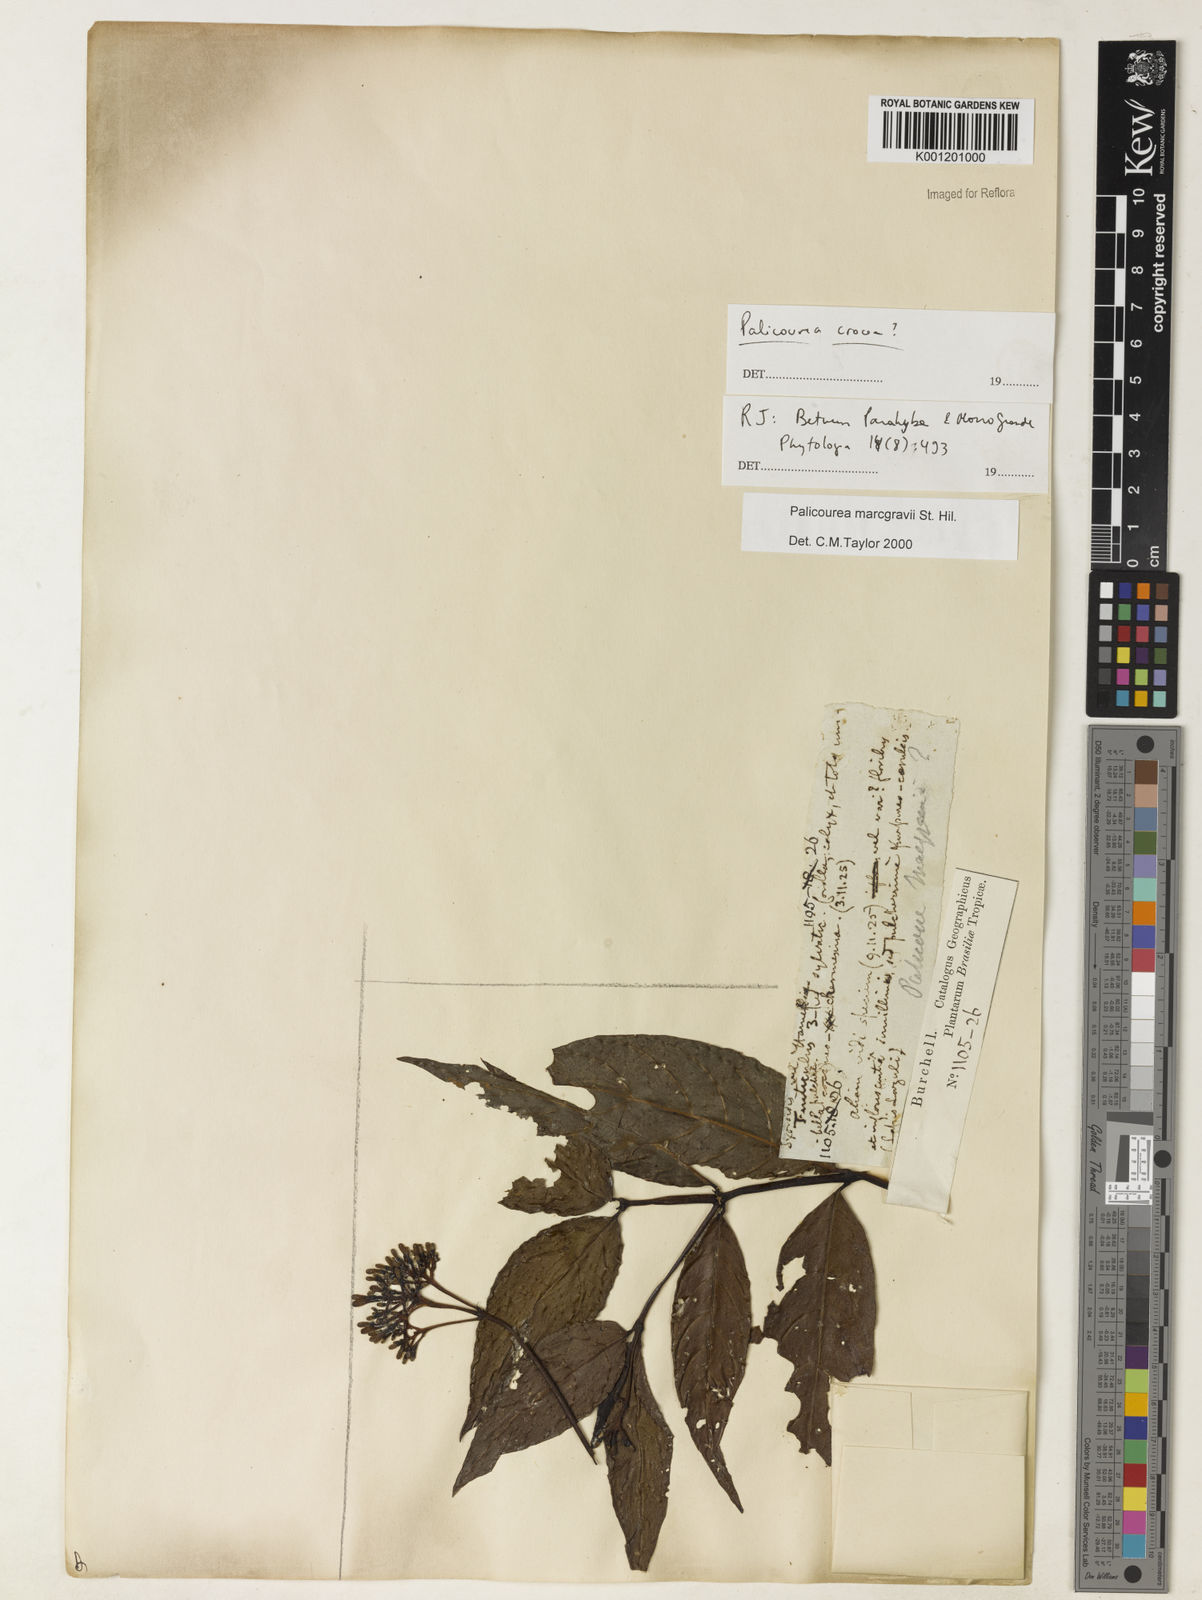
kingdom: Plantae
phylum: Tracheophyta
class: Magnoliopsida
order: Gentianales
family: Rubiaceae
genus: Palicourea
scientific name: Palicourea marcgravii
